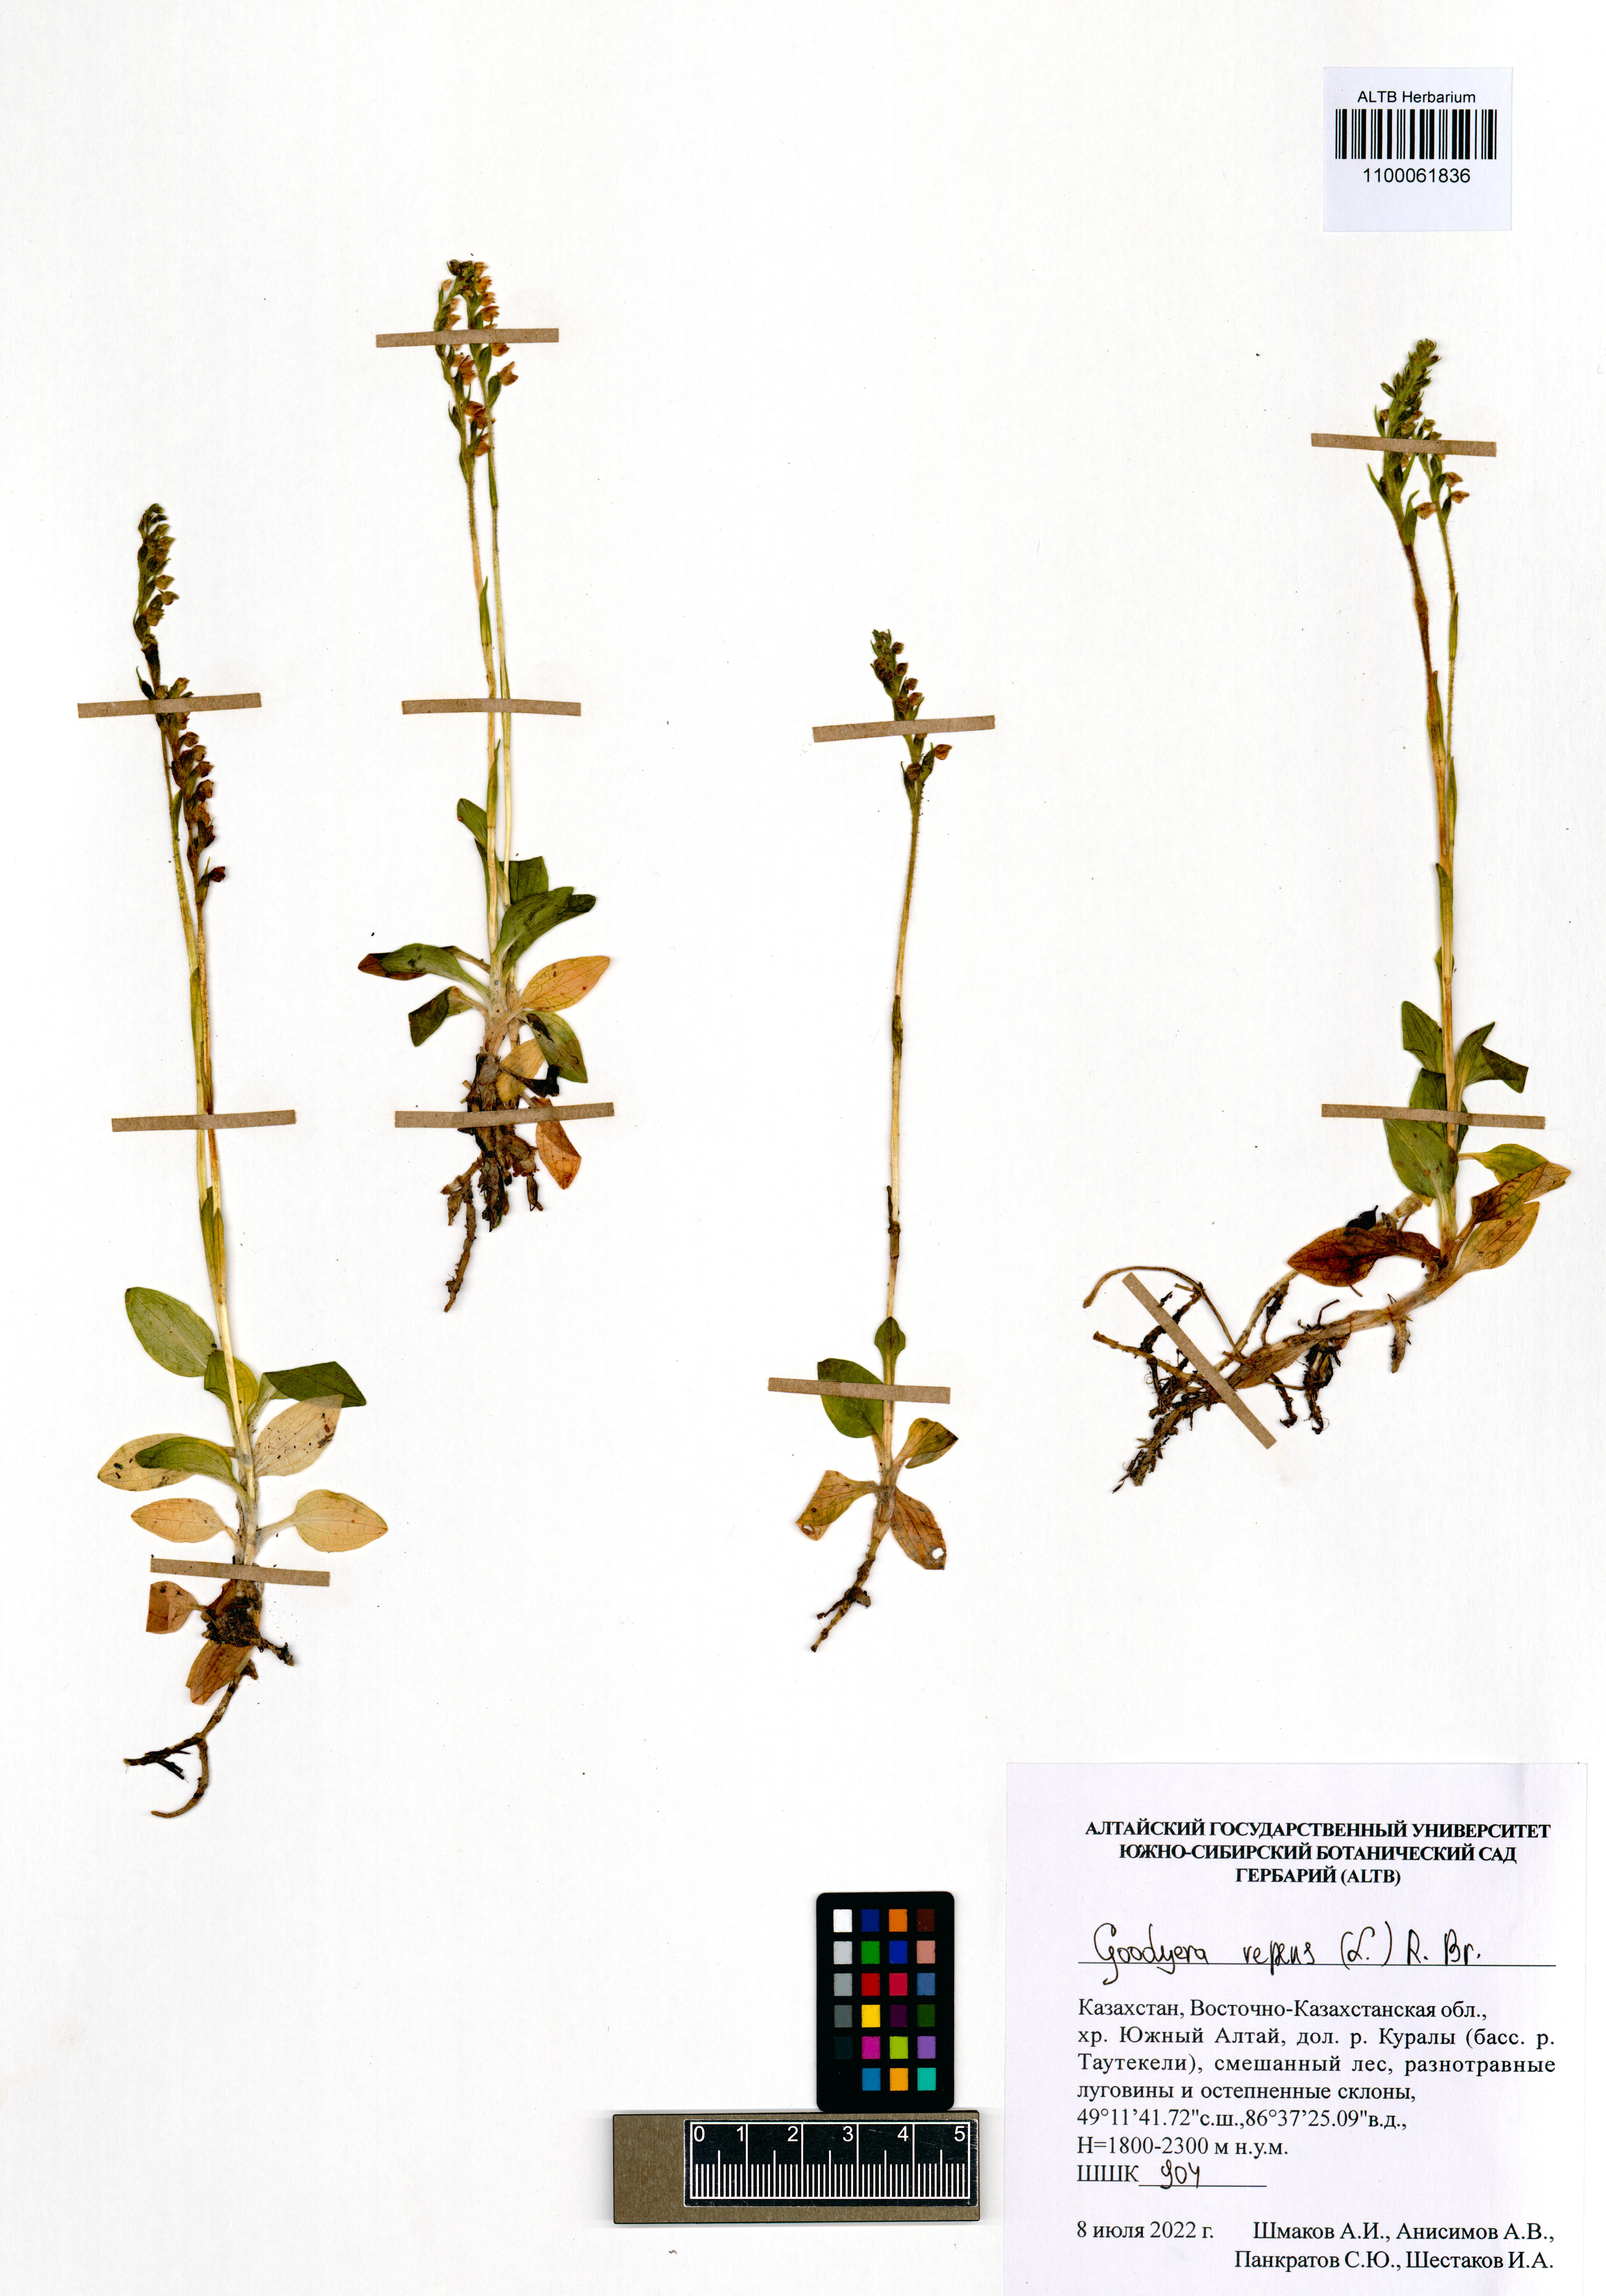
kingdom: Plantae
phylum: Tracheophyta
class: Liliopsida
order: Asparagales
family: Orchidaceae
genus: Goodyera
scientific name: Goodyera repens
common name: Creeping lady's-tresses
